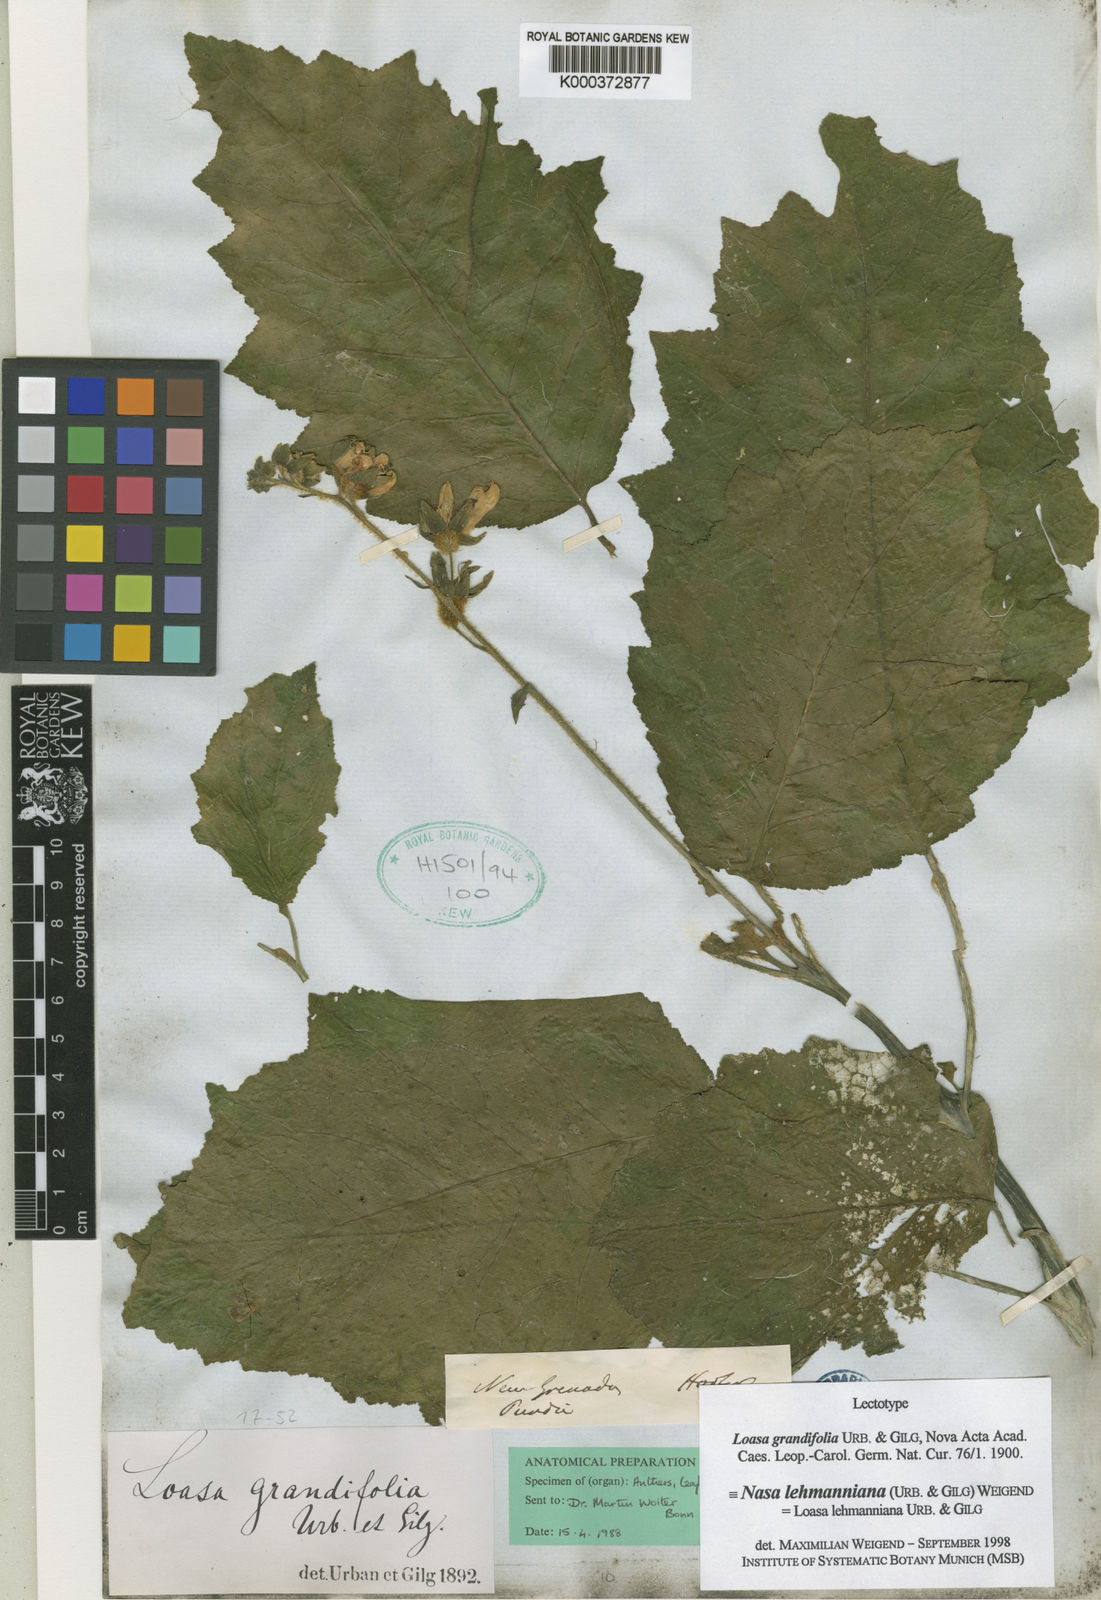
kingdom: Plantae
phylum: Tracheophyta
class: Magnoliopsida
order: Cornales
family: Loasaceae
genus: Nasa
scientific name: Nasa lehmanniana
